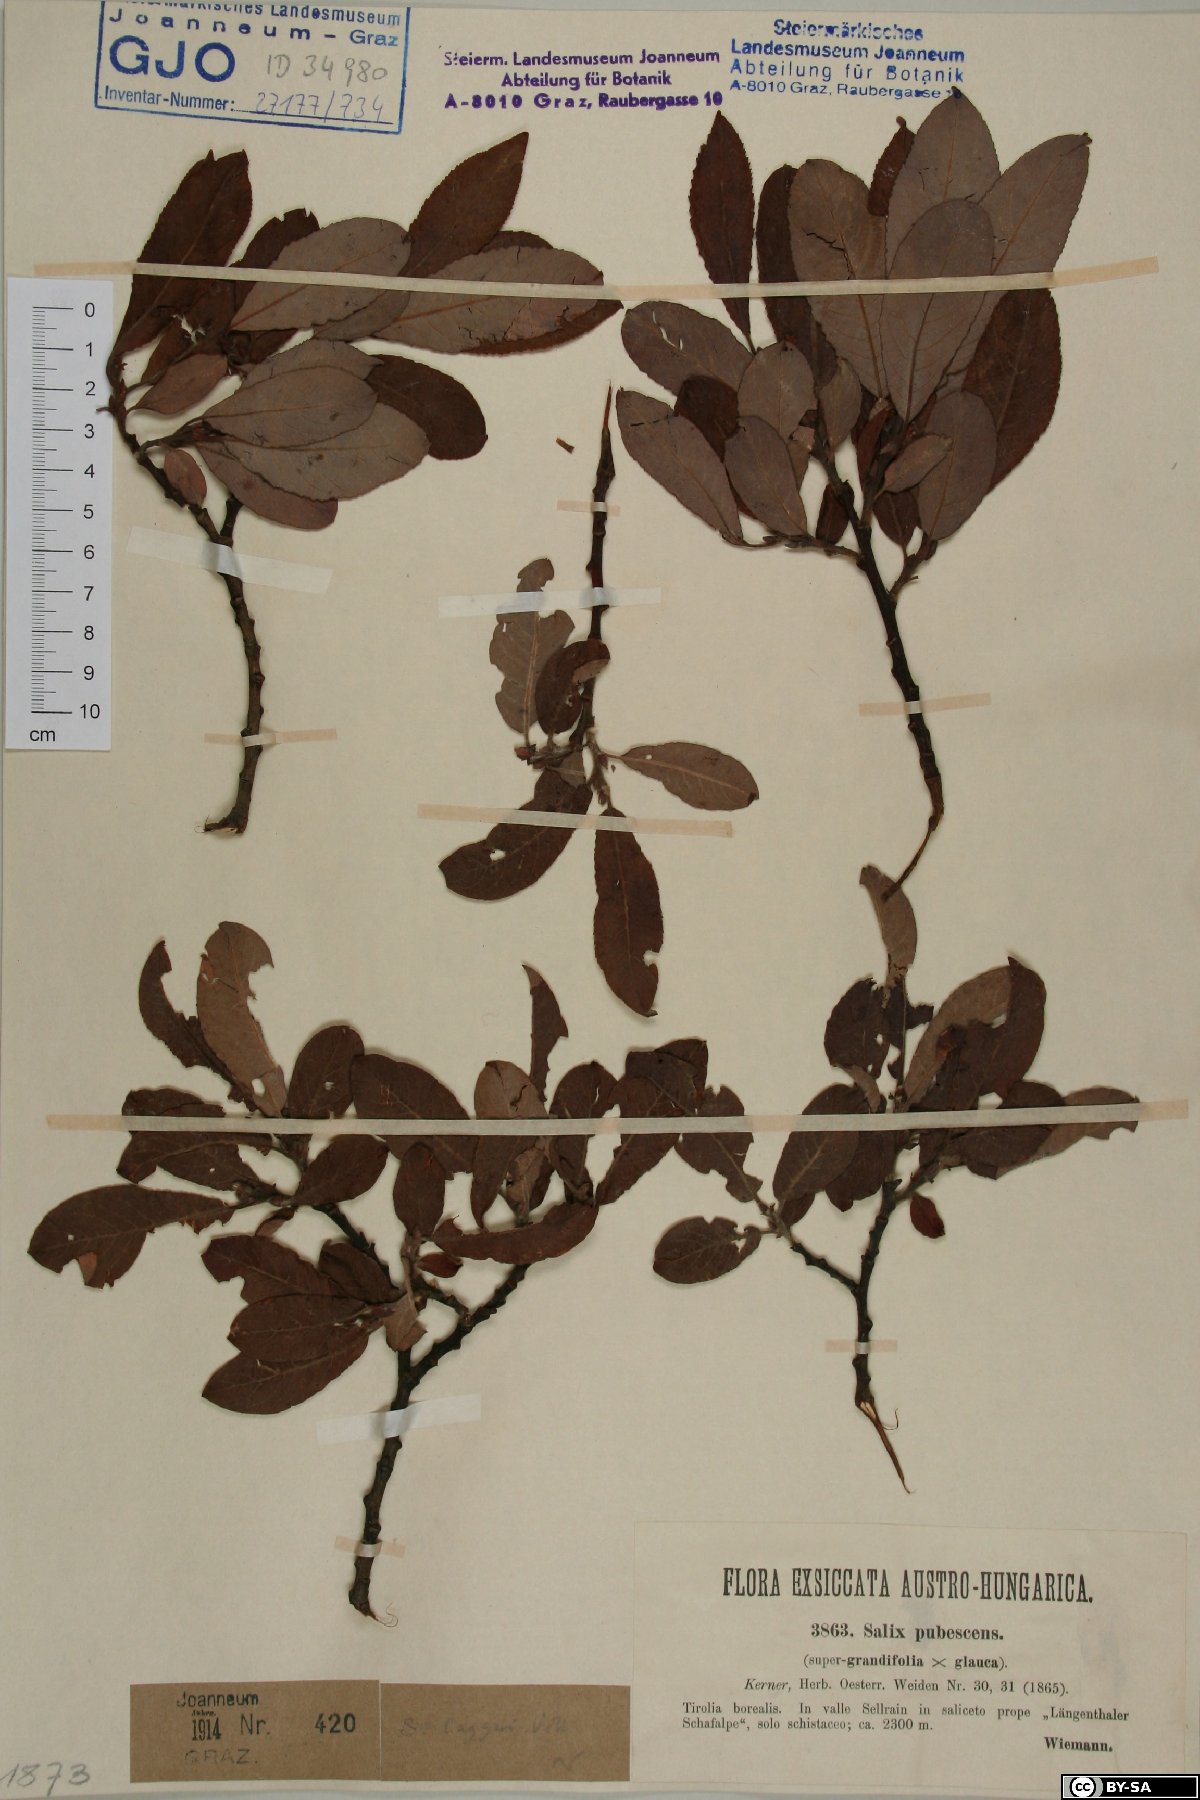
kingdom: Plantae
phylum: Tracheophyta
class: Magnoliopsida
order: Malpighiales
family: Salicaceae
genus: Salix
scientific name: Salix laggeri
